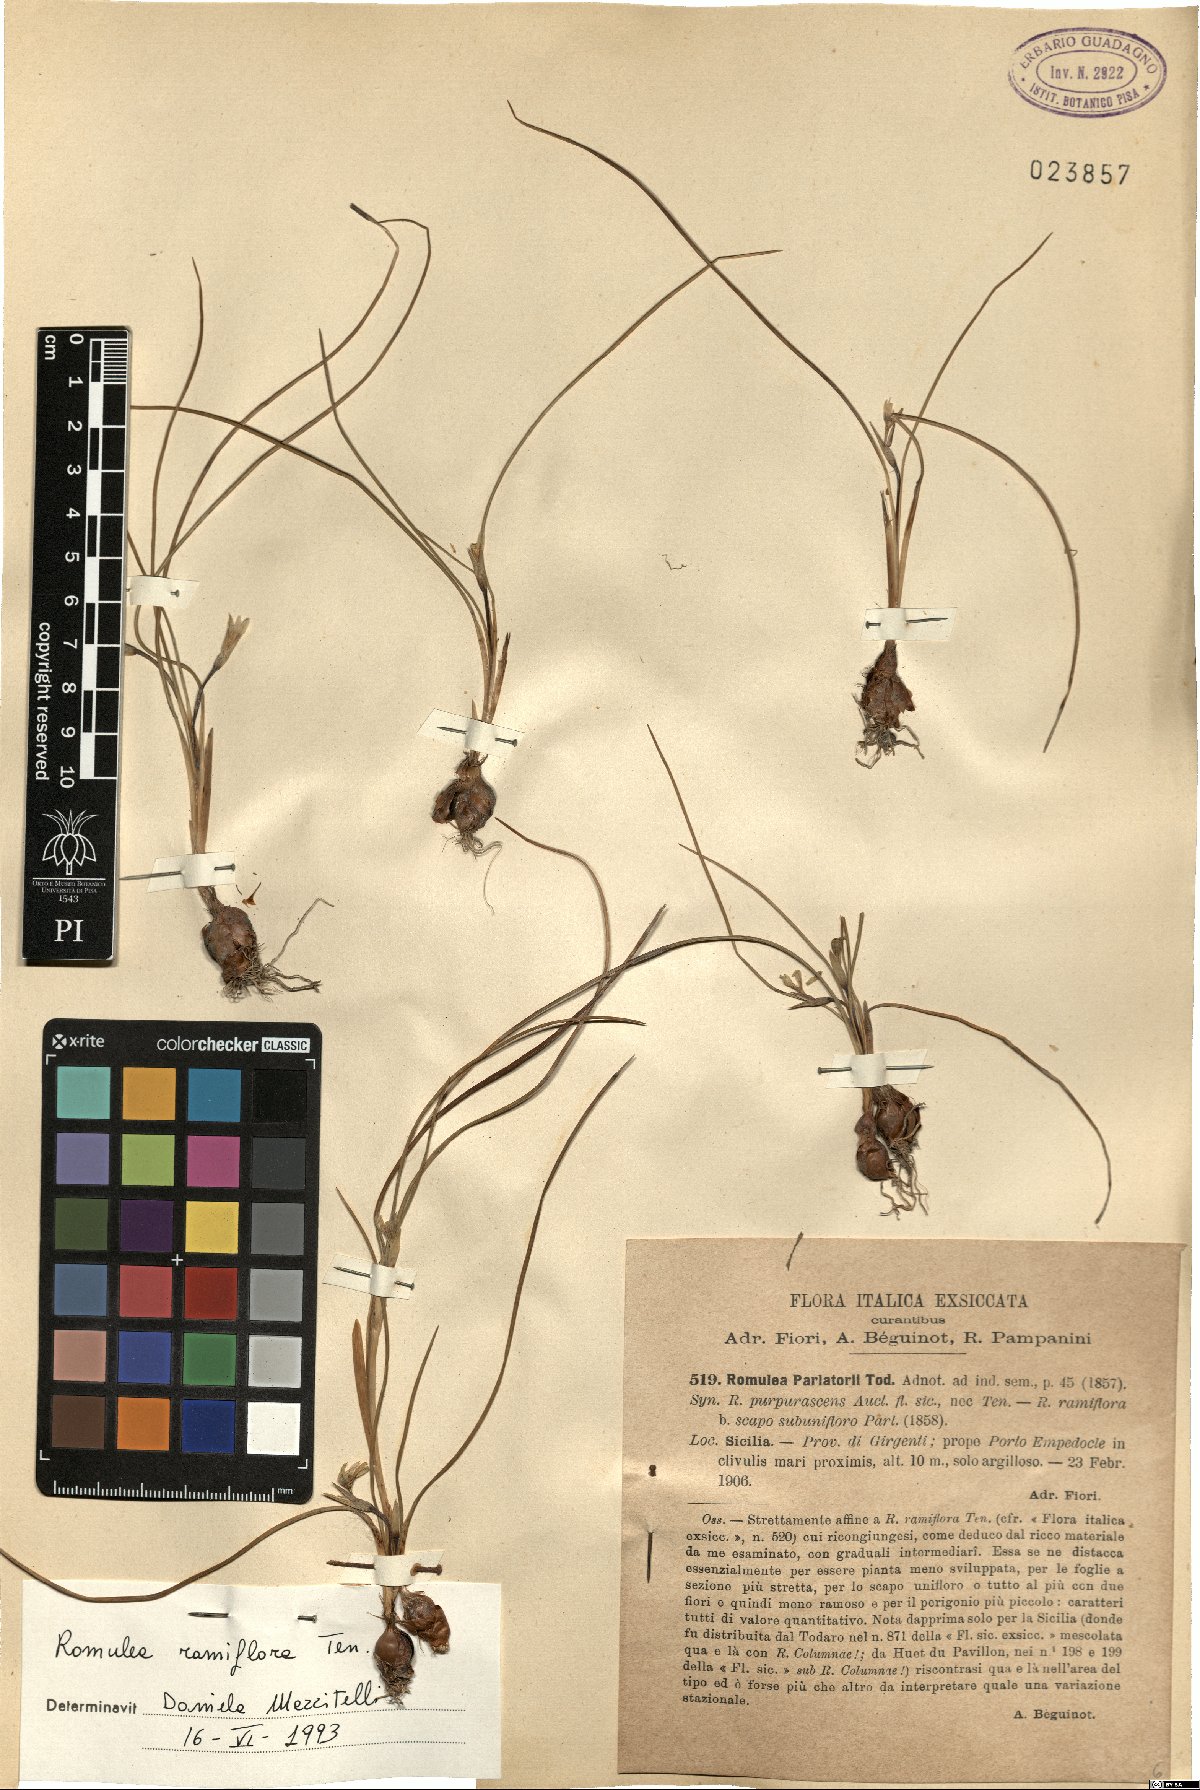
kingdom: Plantae
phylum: Tracheophyta
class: Liliopsida
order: Asparagales
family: Iridaceae
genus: Romulea
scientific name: Romulea ramiflora
